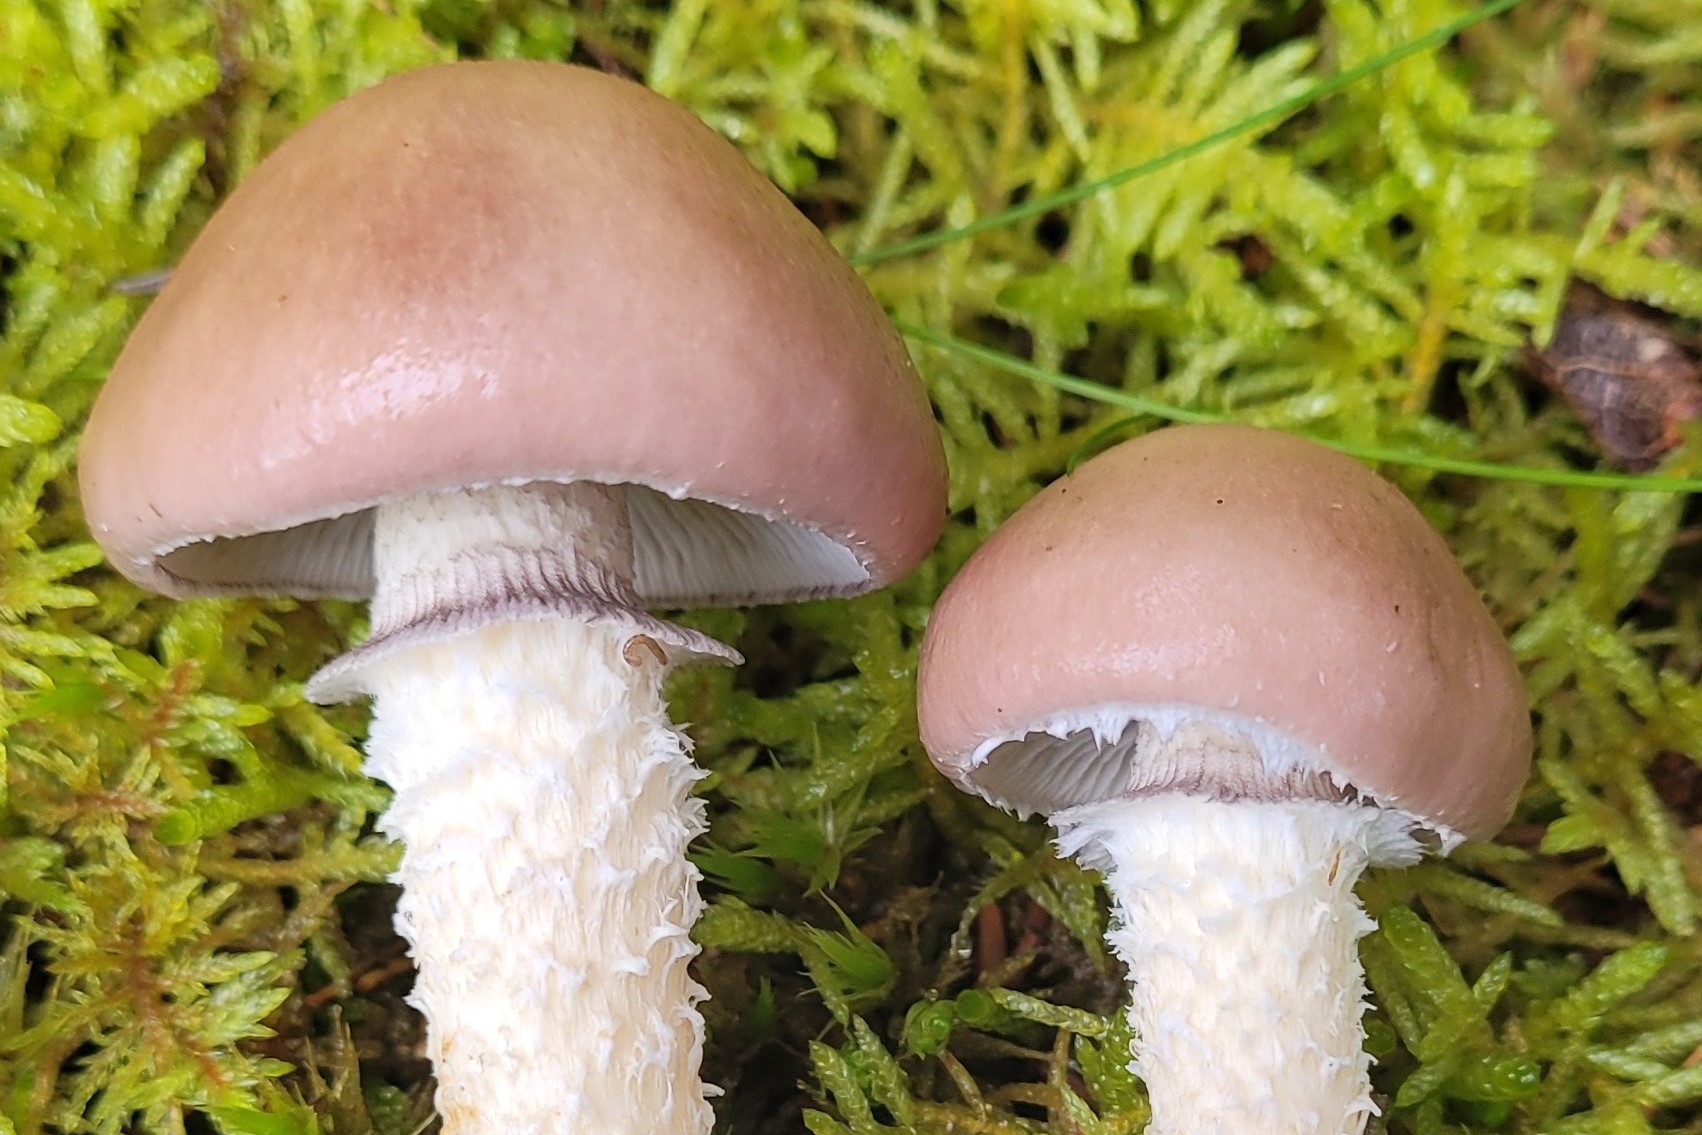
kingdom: Fungi
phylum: Basidiomycota
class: Agaricomycetes
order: Agaricales
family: Strophariaceae
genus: Stropharia
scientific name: Stropharia hornemannii
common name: nordisk bredblad
